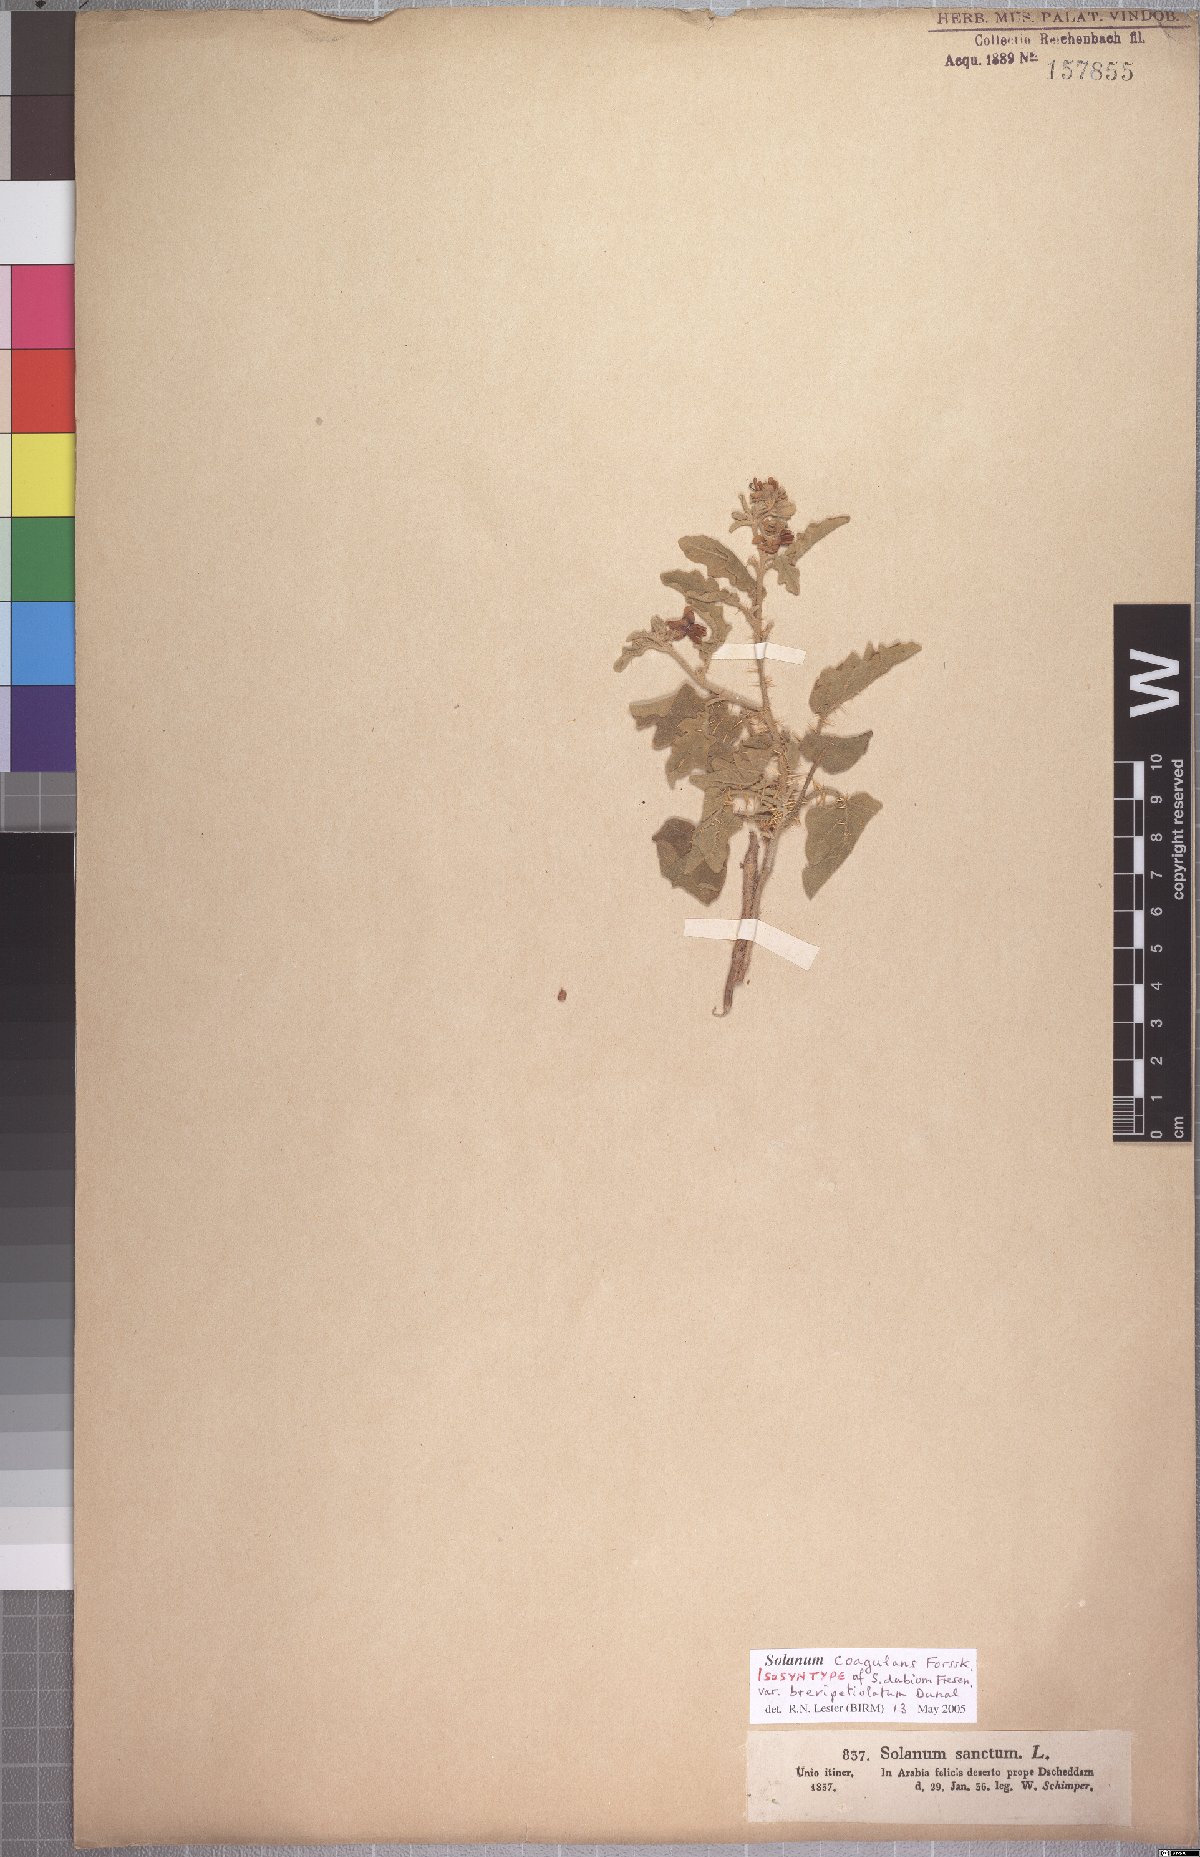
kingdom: Plantae
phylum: Tracheophyta
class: Magnoliopsida
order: Solanales
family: Solanaceae
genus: Solanum
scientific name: Solanum coagulans
